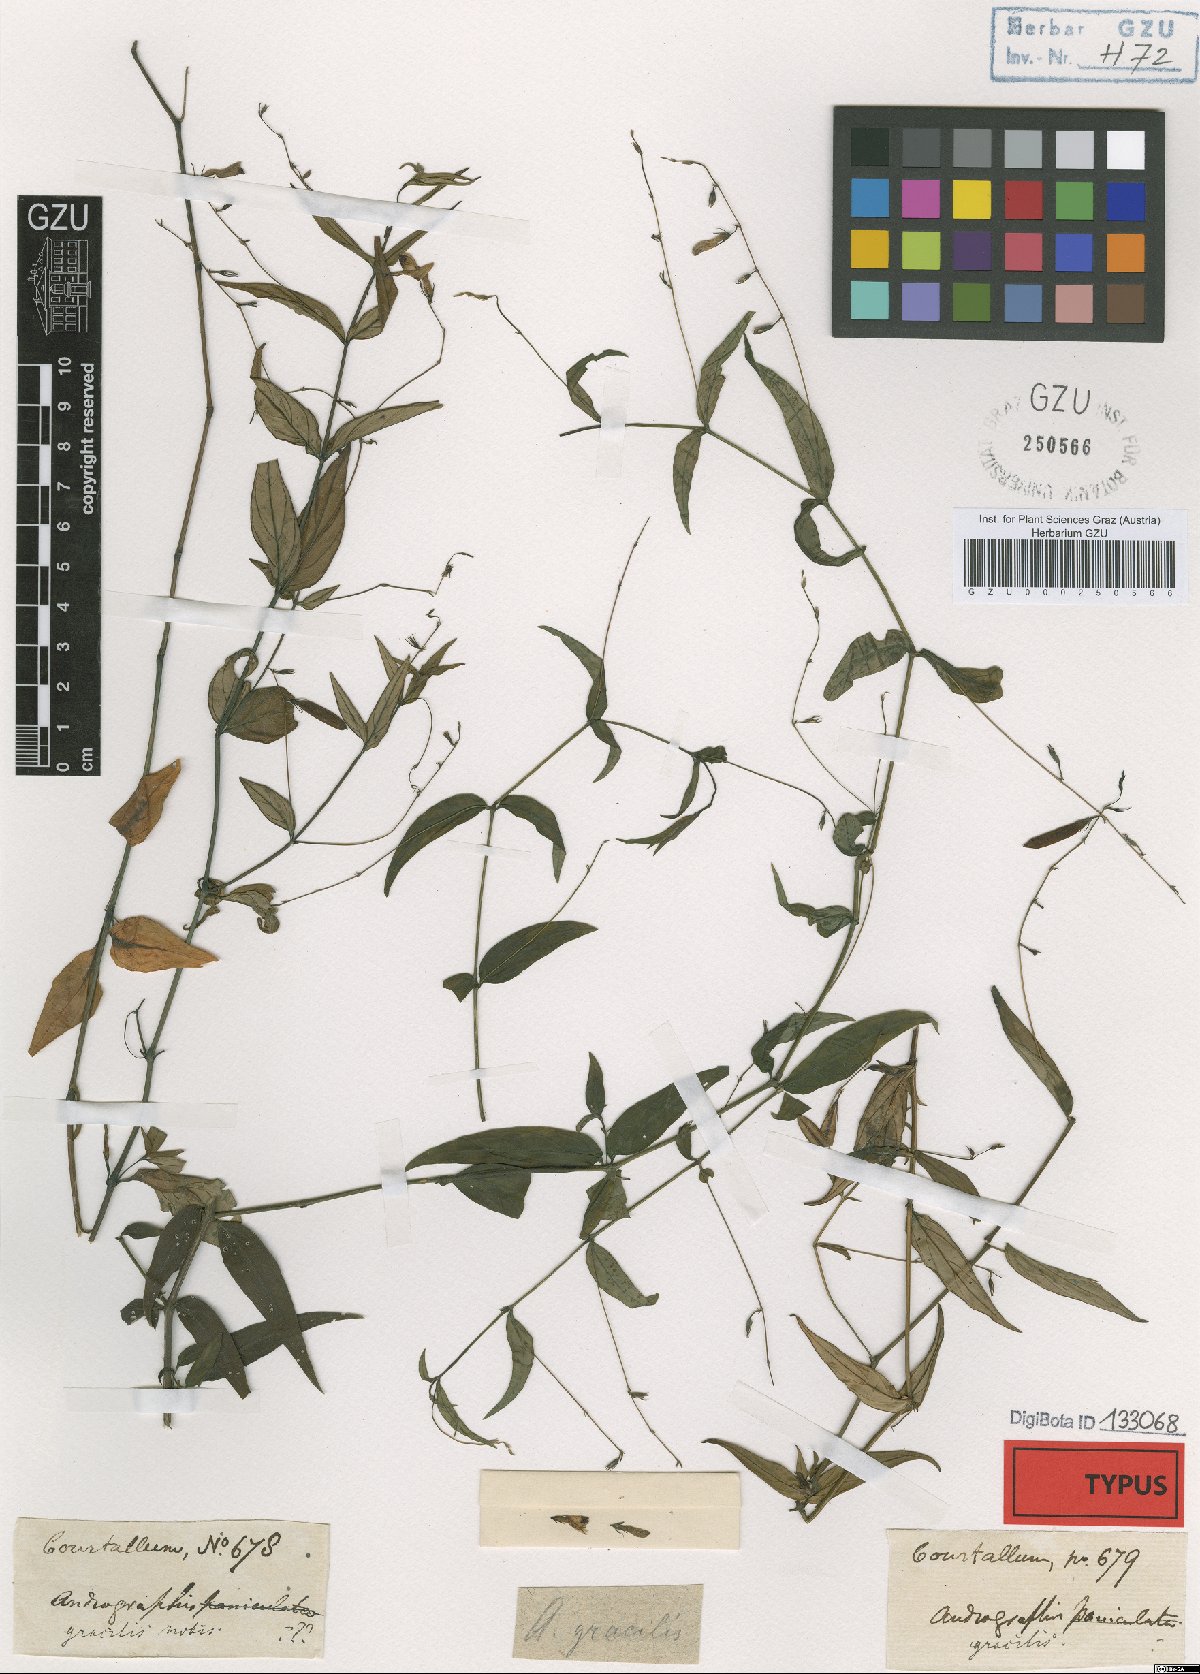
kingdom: Plantae
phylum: Tracheophyta
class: Magnoliopsida
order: Lamiales
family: Acanthaceae
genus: Andrographis
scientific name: Andrographis gracilis
